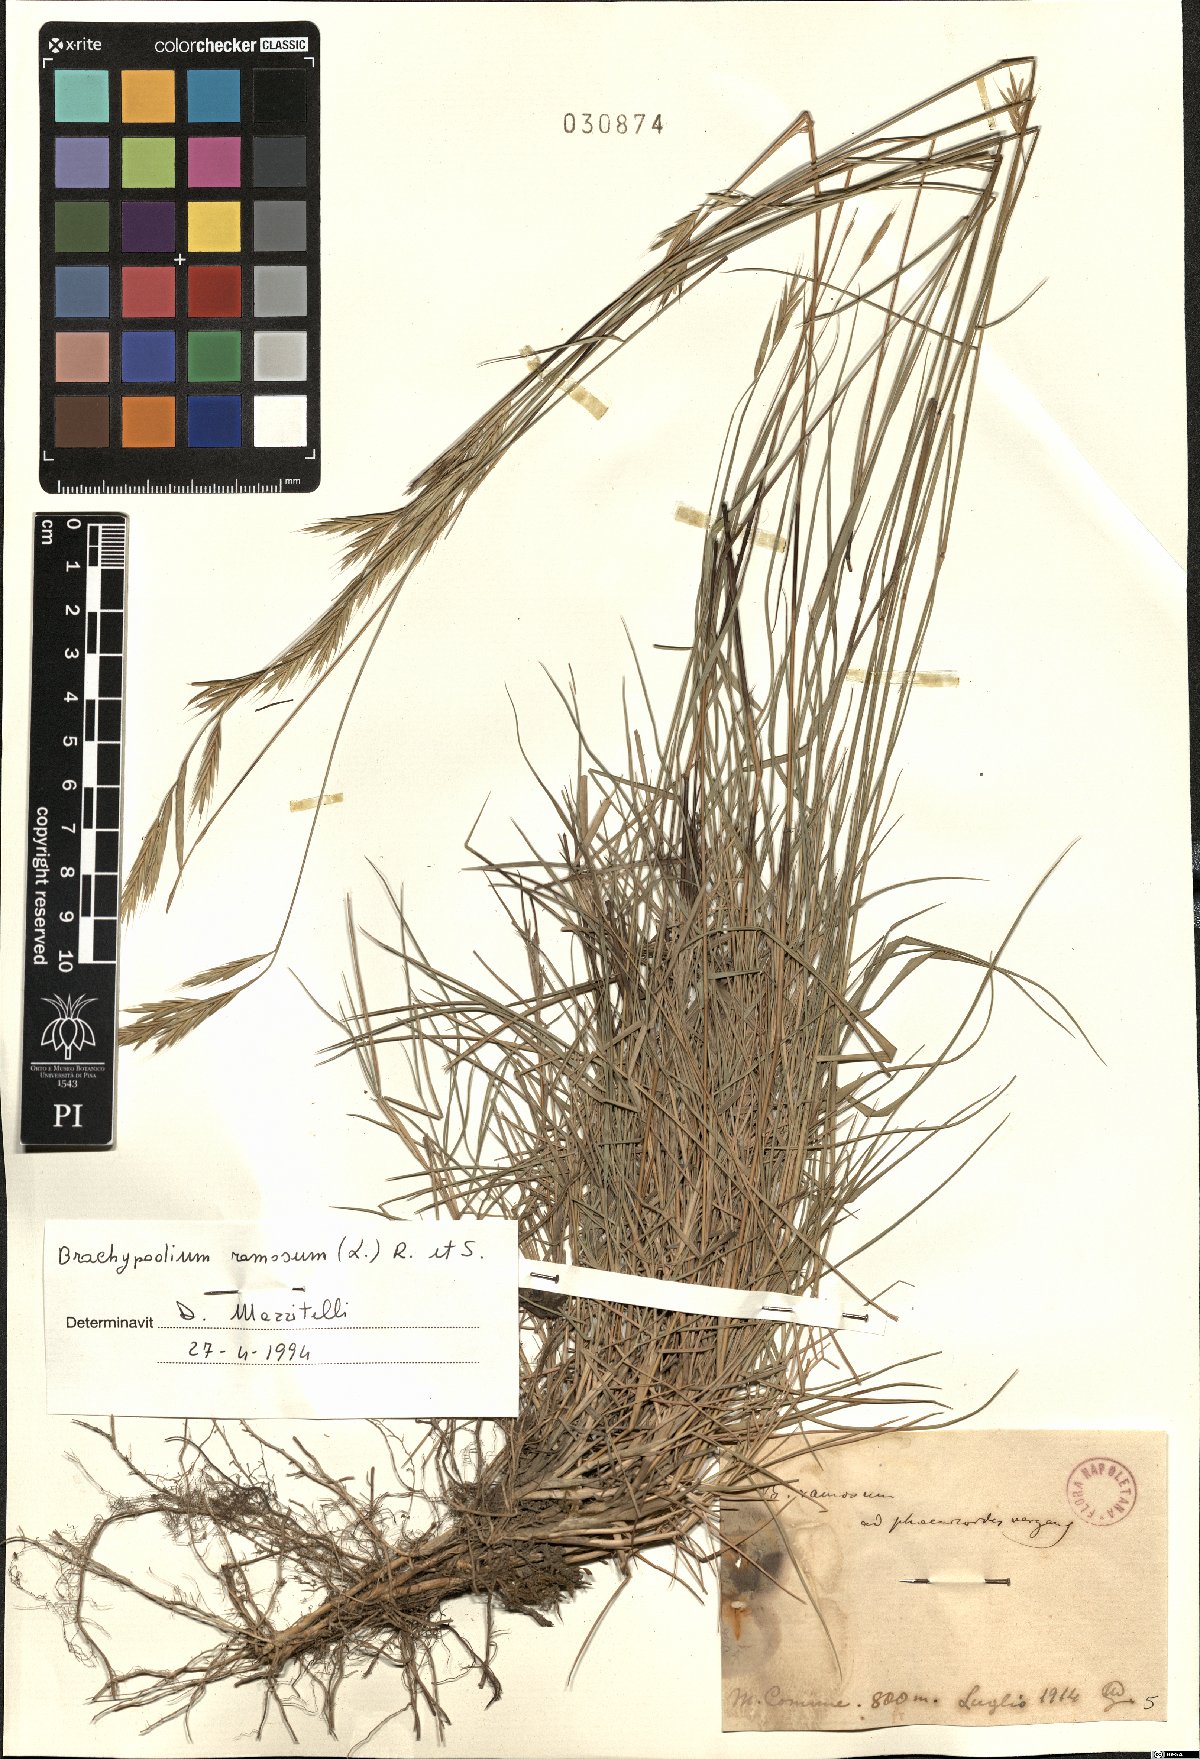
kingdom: Plantae
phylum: Tracheophyta
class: Liliopsida
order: Poales
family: Poaceae
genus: Brachypodium
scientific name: Brachypodium retusum
